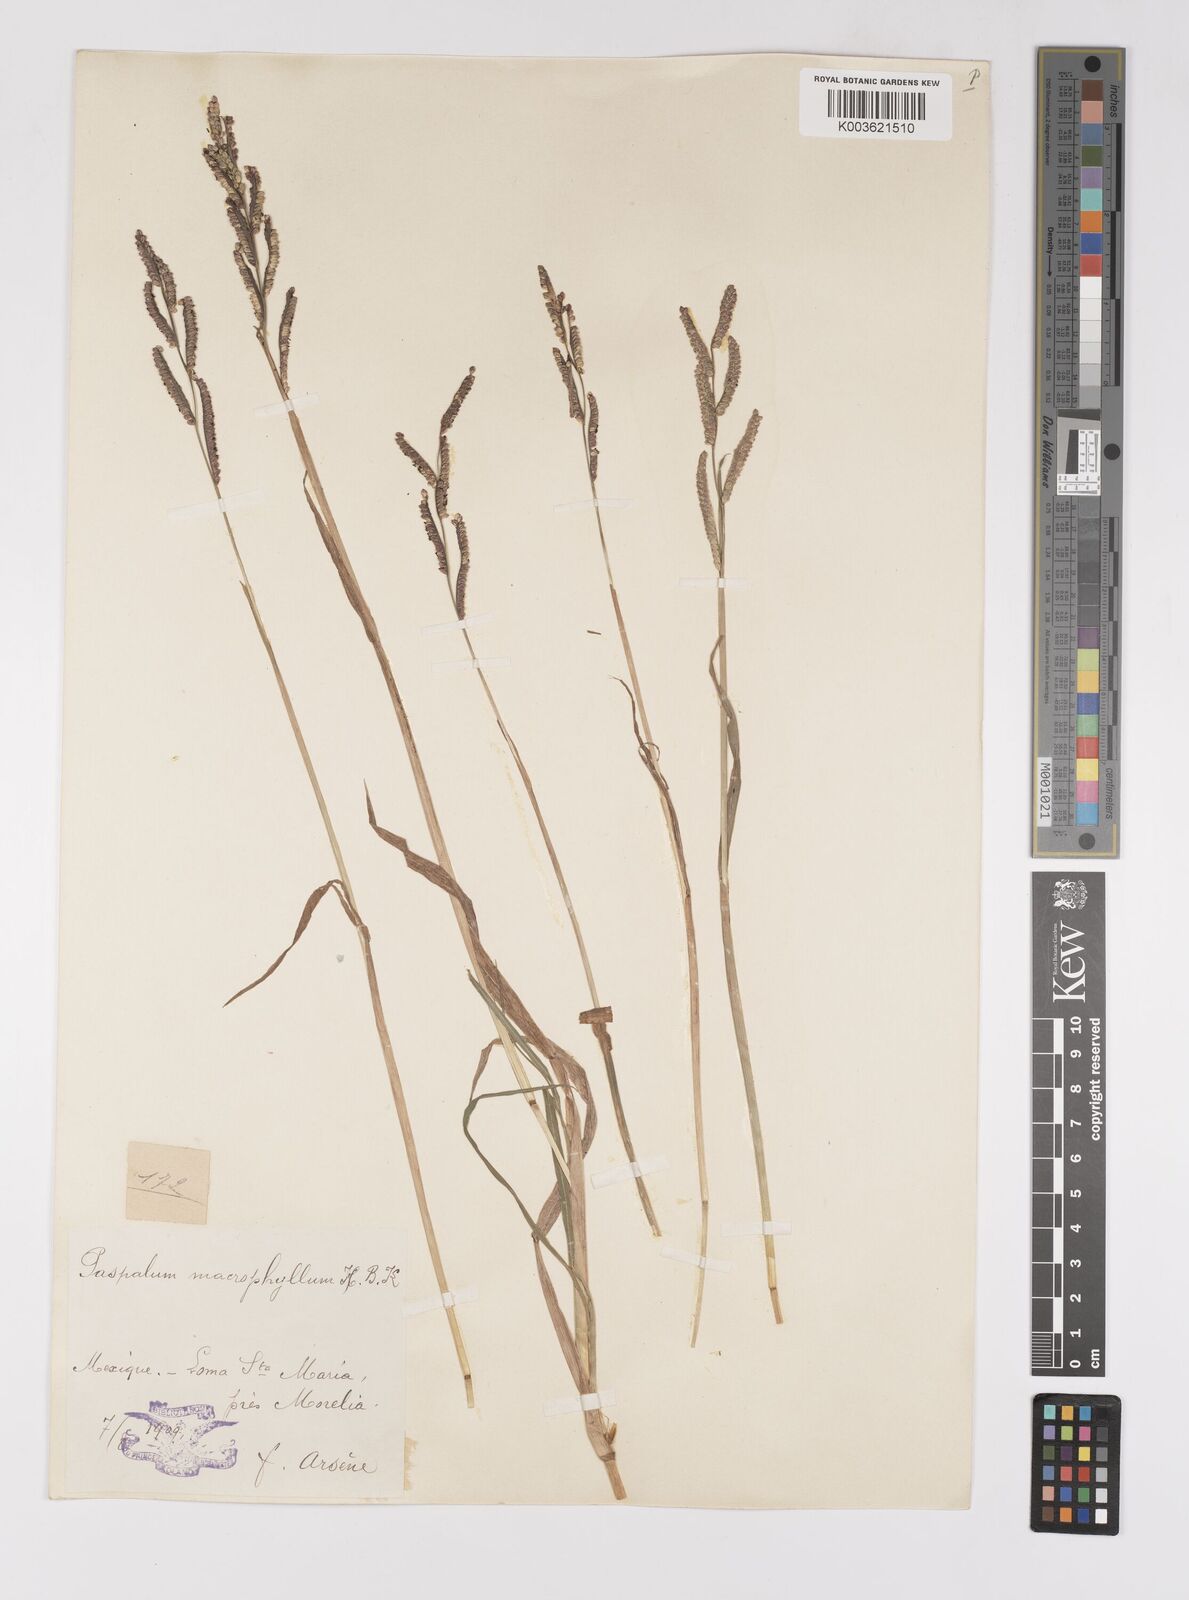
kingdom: Plantae
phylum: Tracheophyta
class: Liliopsida
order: Poales
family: Poaceae
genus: Paspalum
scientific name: Paspalum denticulatum
